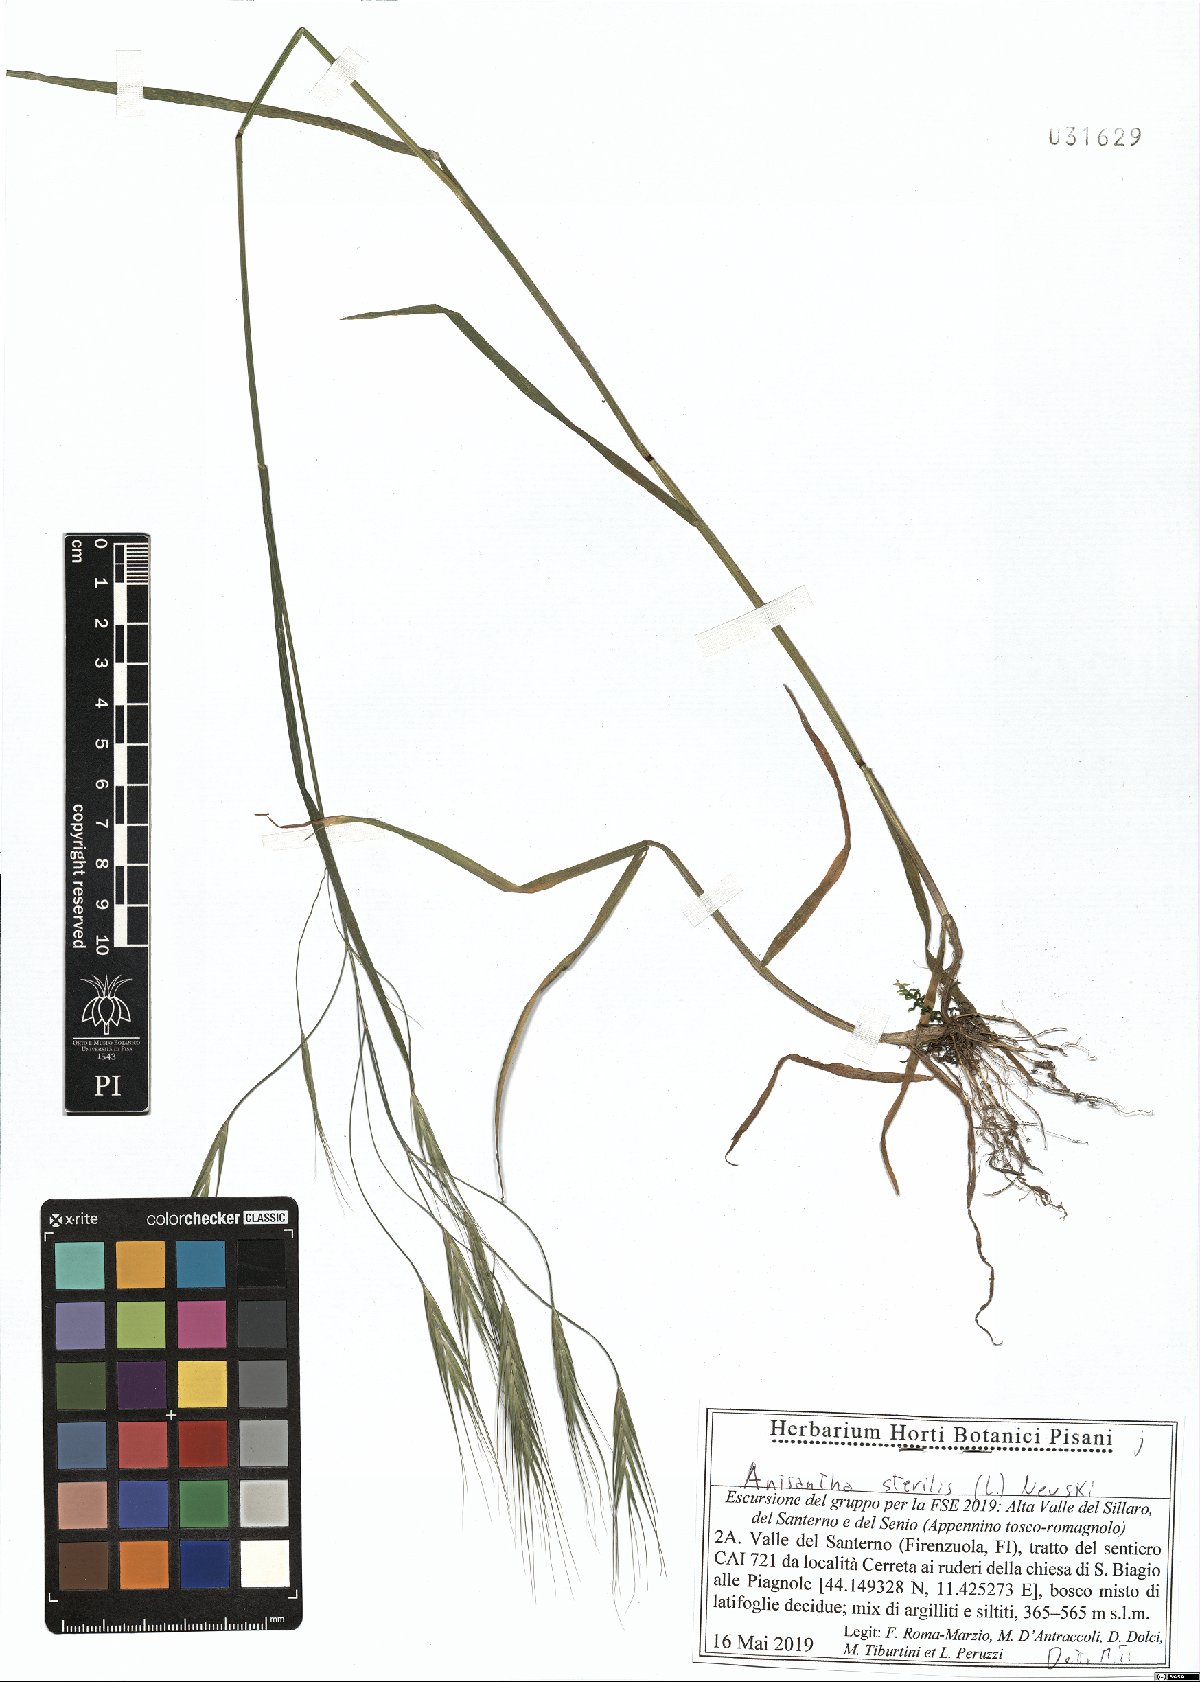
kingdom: Plantae
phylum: Tracheophyta
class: Liliopsida
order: Poales
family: Poaceae
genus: Bromus
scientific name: Bromus sterilis
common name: Poverty brome
